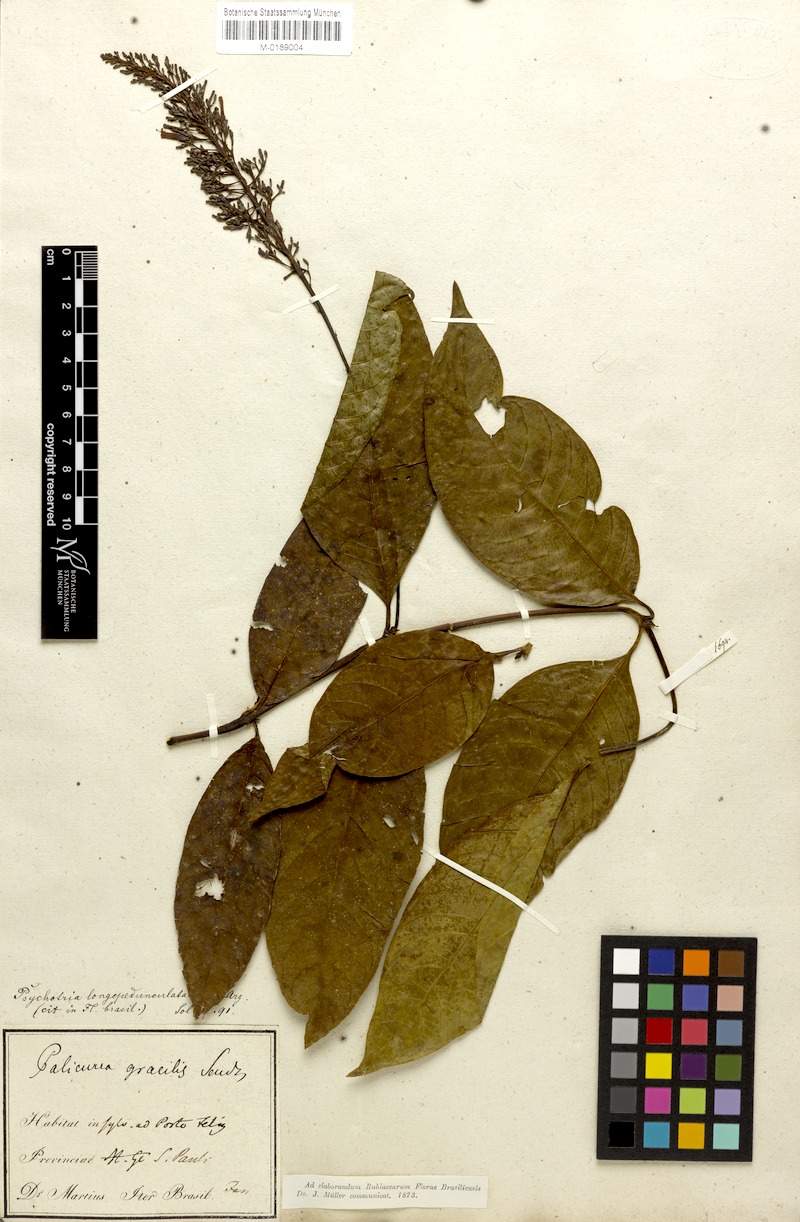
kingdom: Plantae
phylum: Tracheophyta
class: Magnoliopsida
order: Gentianales
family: Rubiaceae
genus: Palicourea
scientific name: Palicourea longipedunculata
